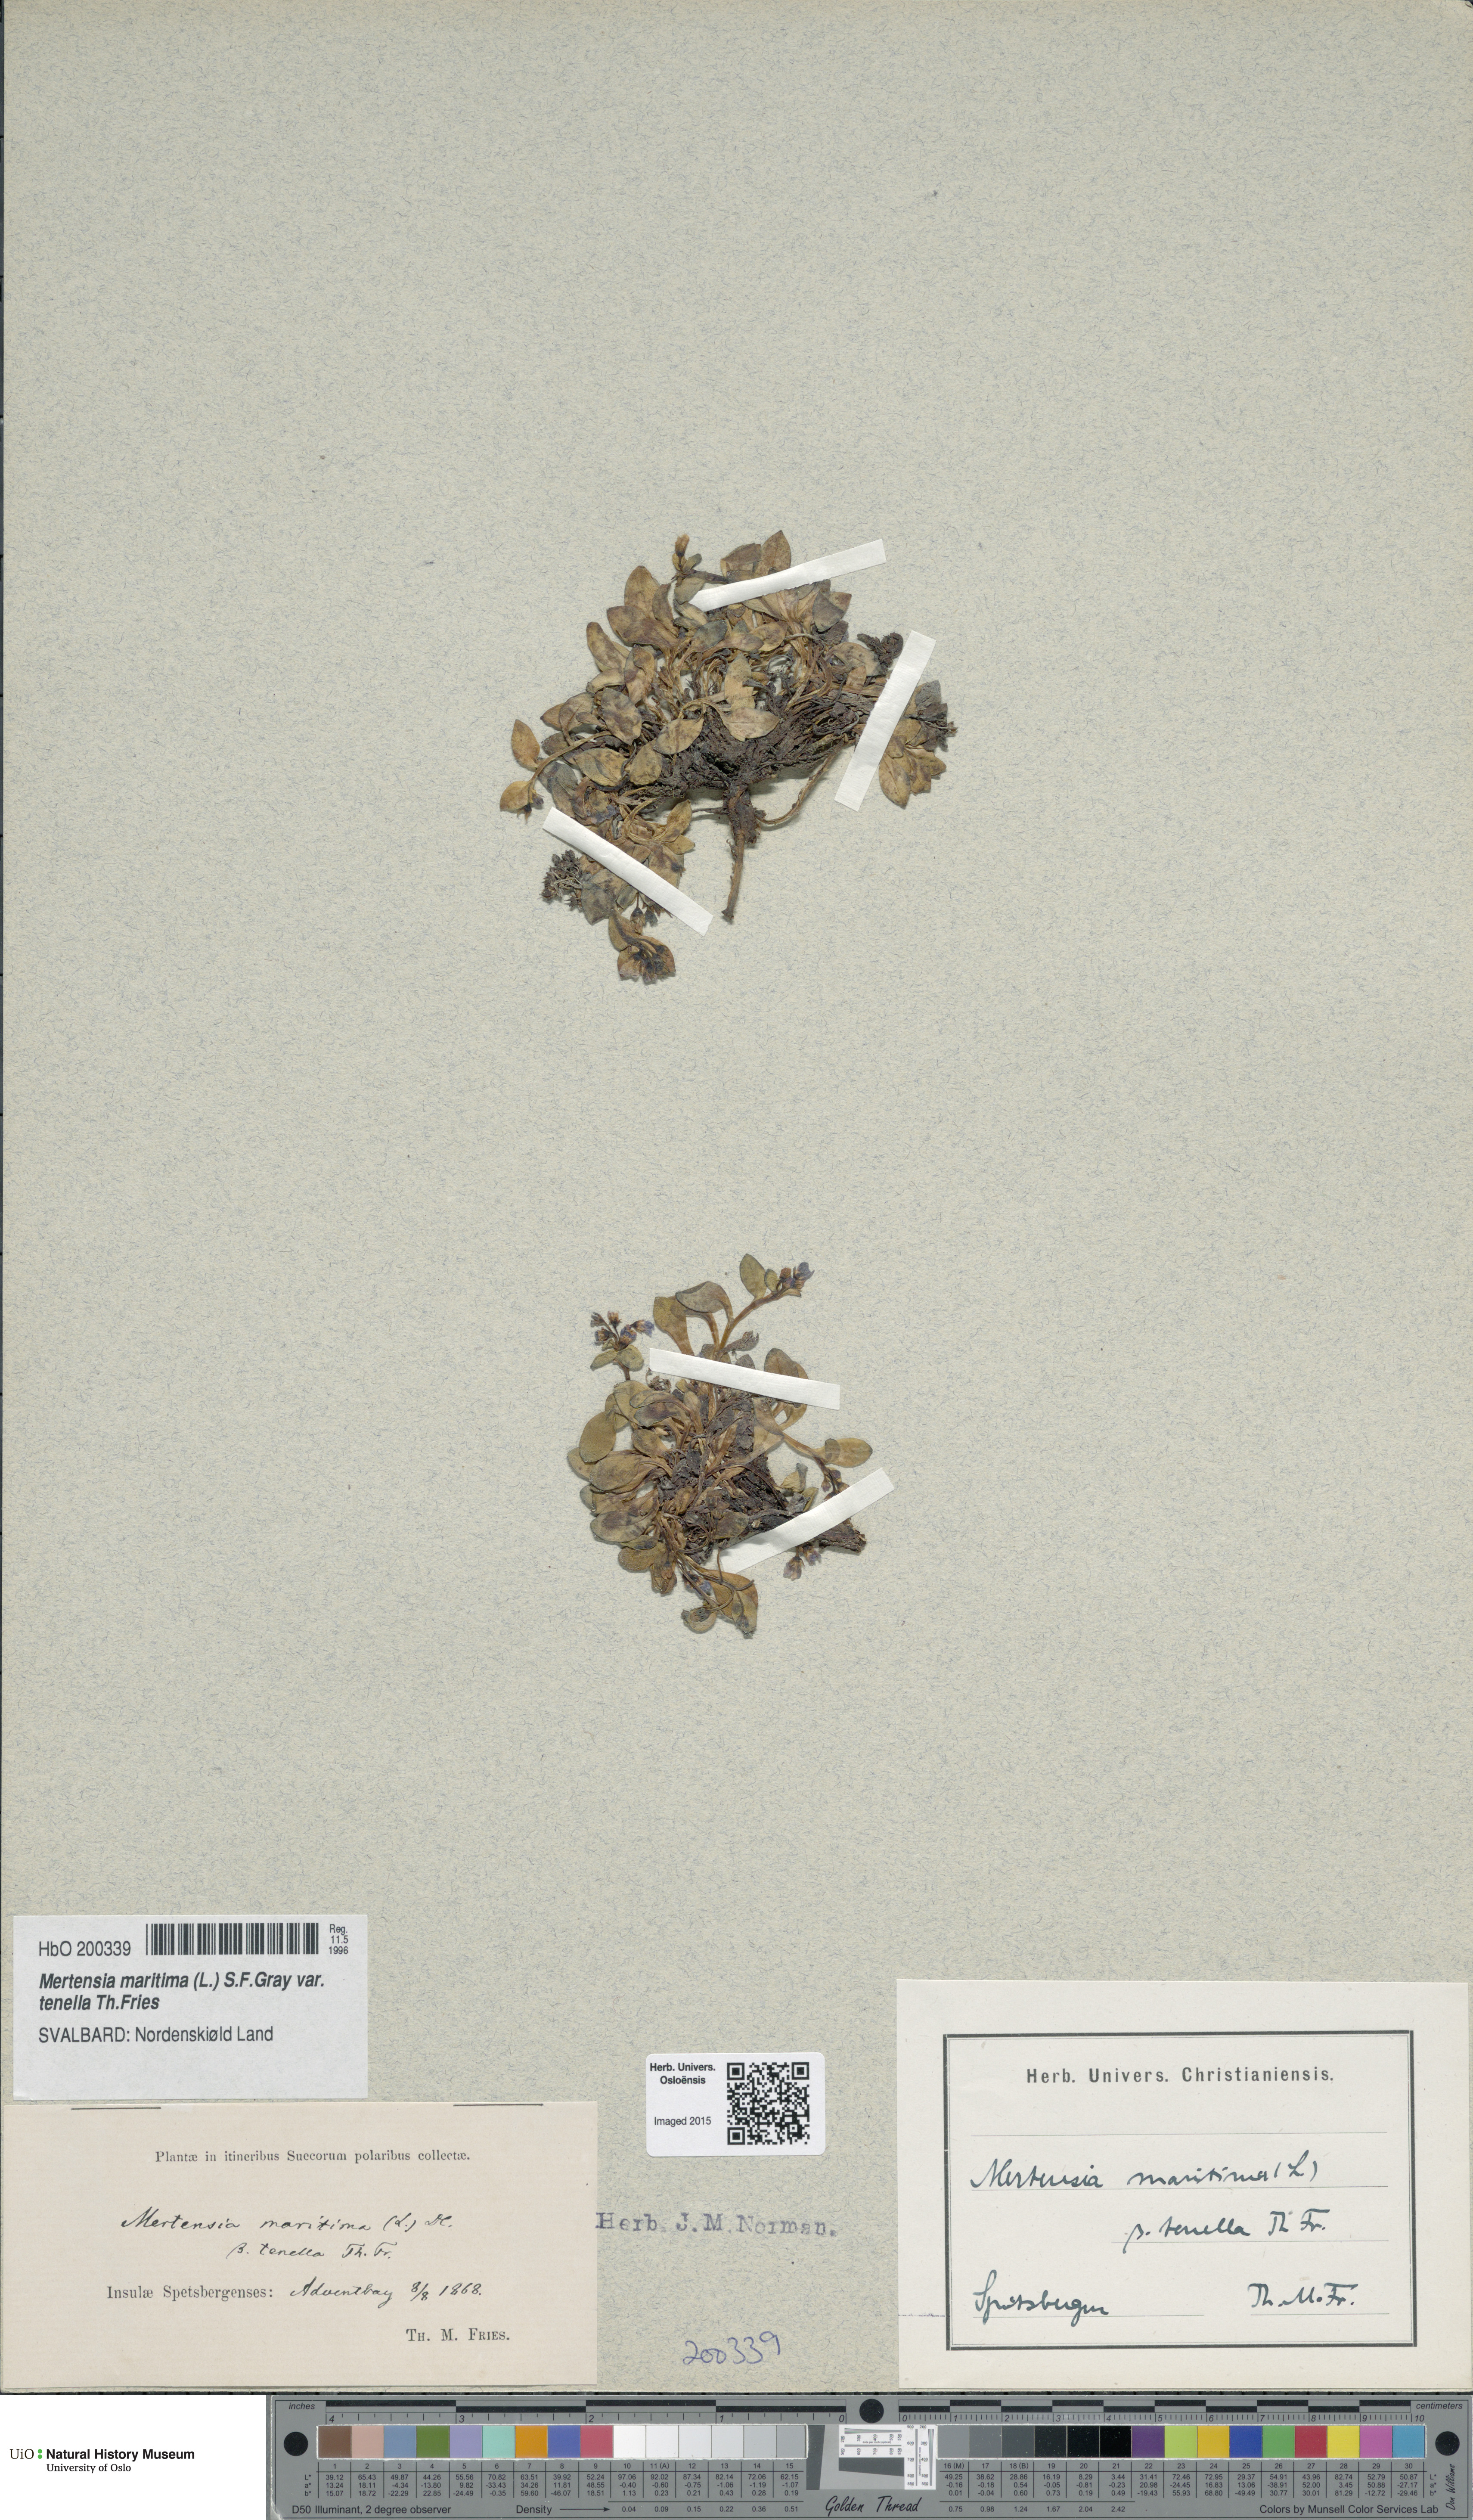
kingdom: Plantae
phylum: Tracheophyta
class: Magnoliopsida
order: Boraginales
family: Boraginaceae
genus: Mertensia
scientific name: Mertensia maritima
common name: Oysterplant
